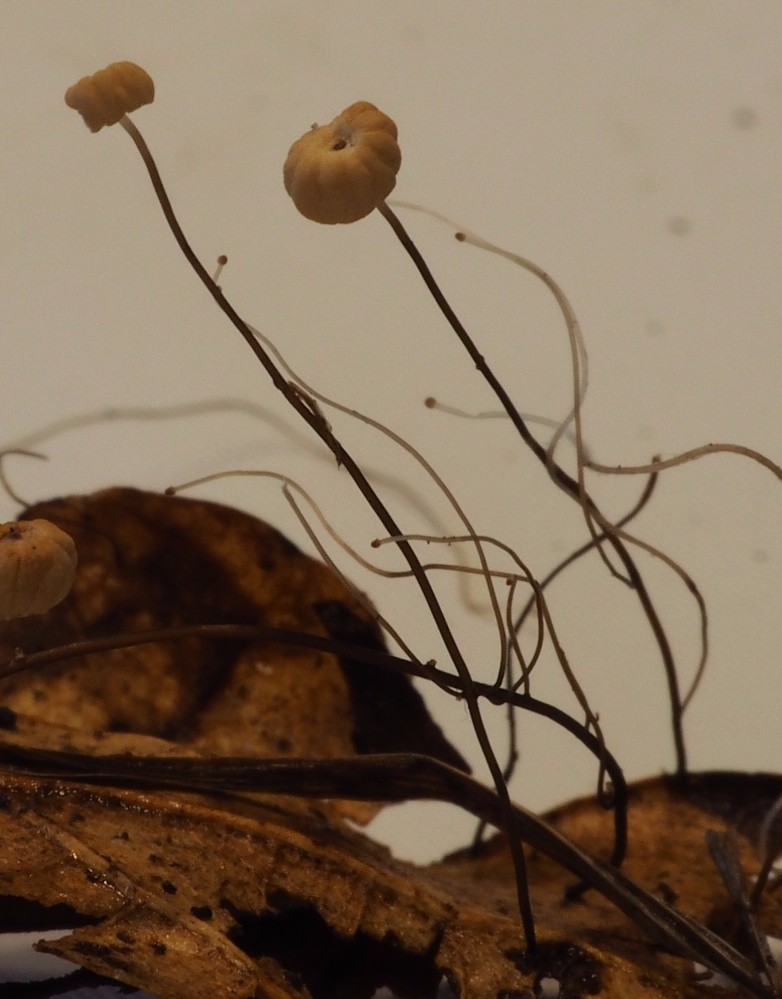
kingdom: Fungi
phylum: Basidiomycota
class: Agaricomycetes
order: Agaricales
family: Marasmiaceae
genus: Marasmius
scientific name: Marasmius bulliardii
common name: furet bruskhat
